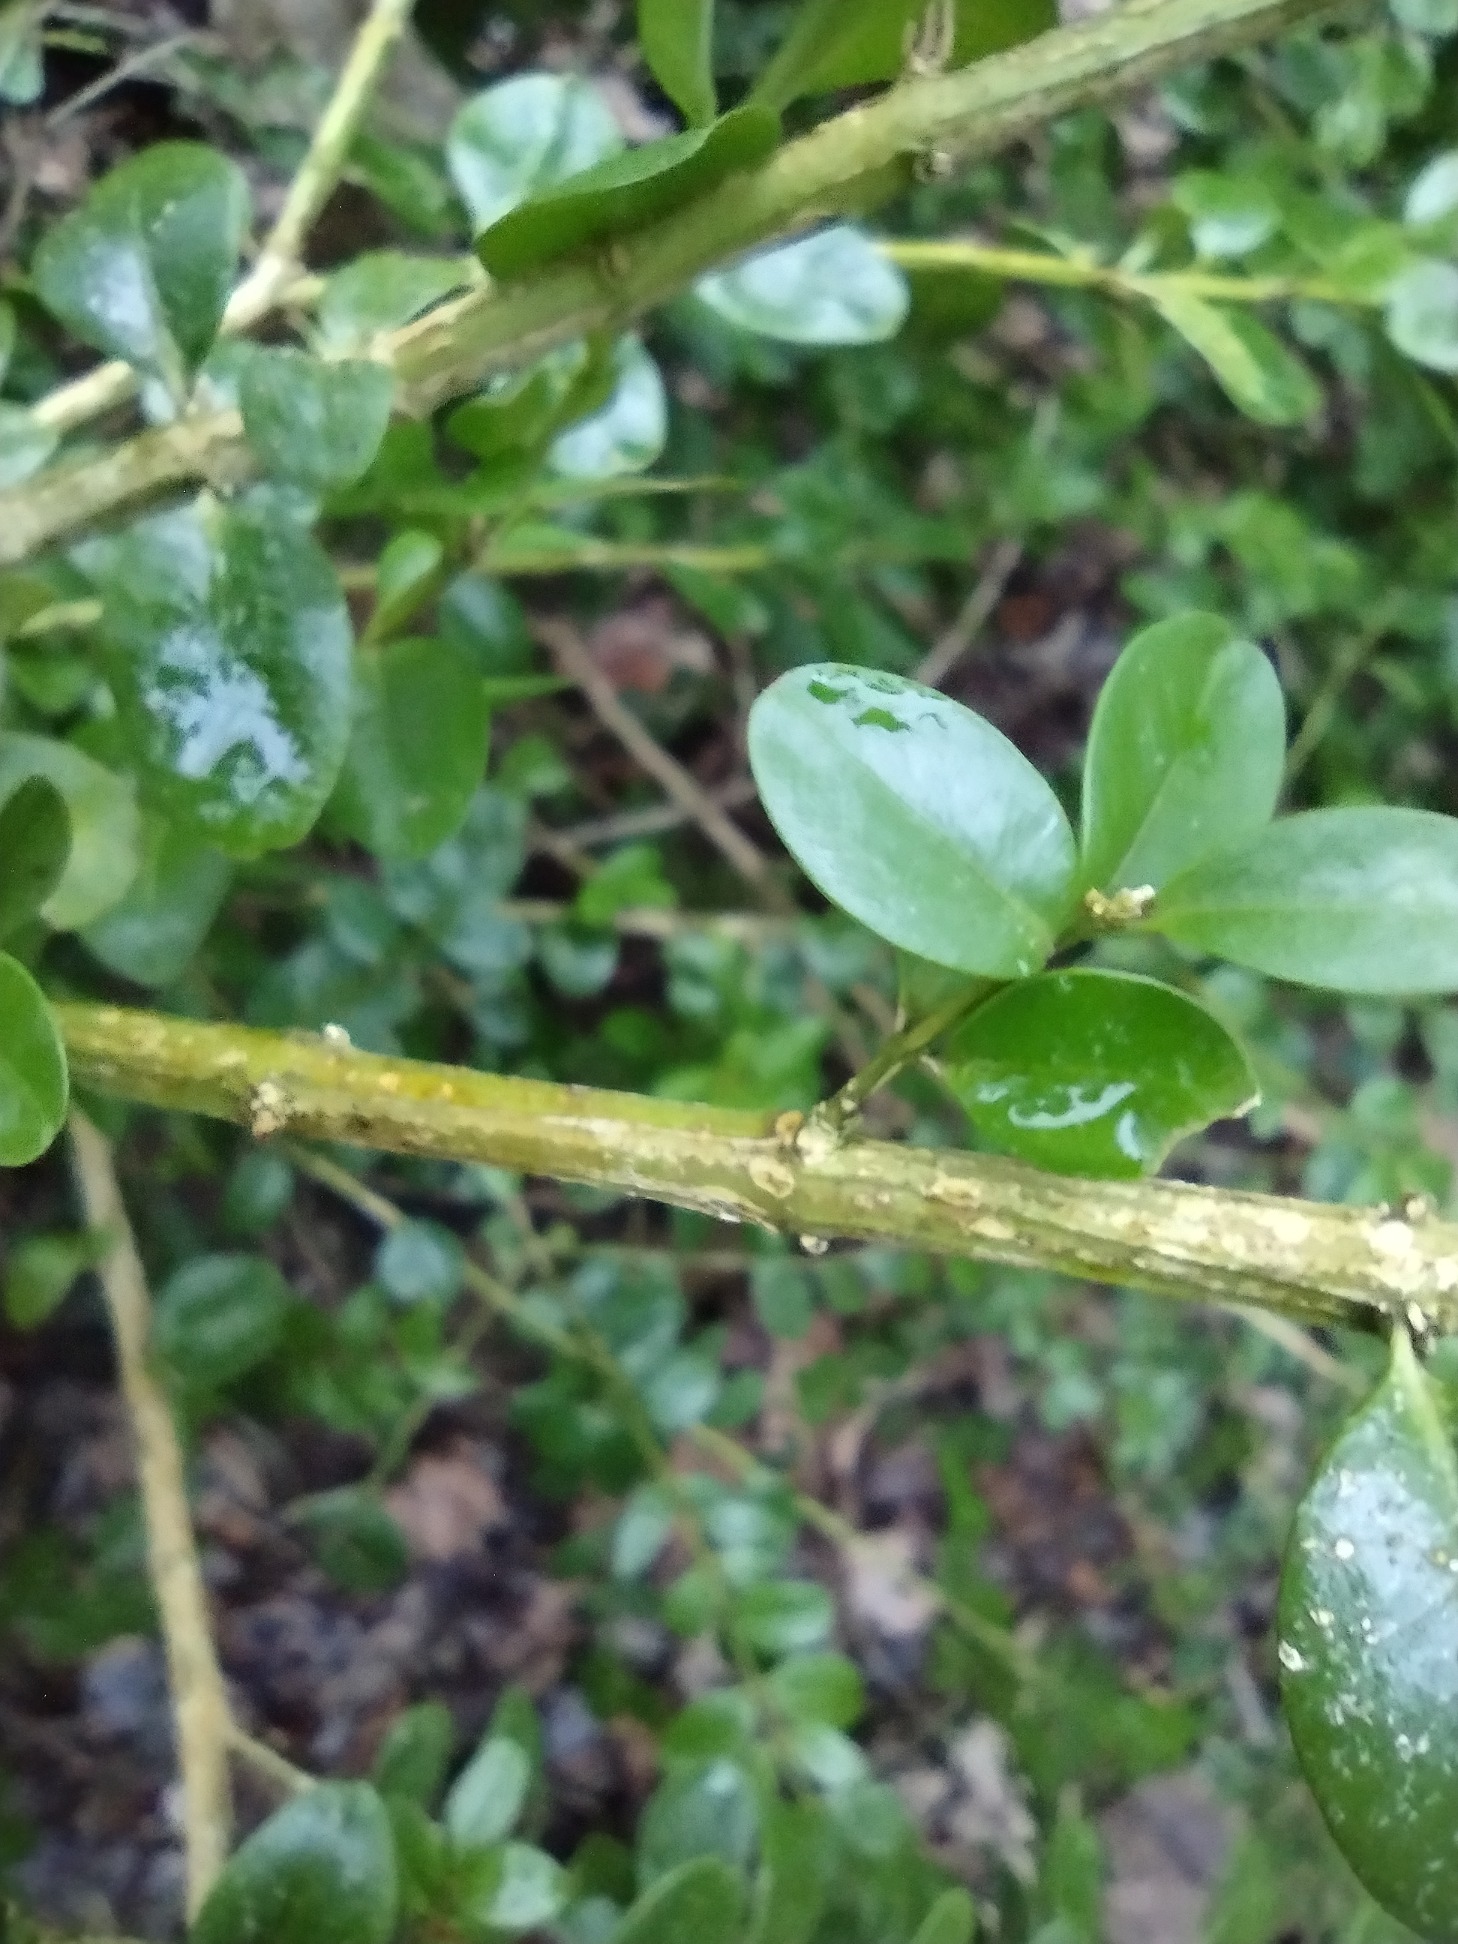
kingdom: Plantae
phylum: Tracheophyta
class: Magnoliopsida
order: Buxales
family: Buxaceae
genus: Buxus
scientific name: Buxus sempervirens
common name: Almindelig buksbom
